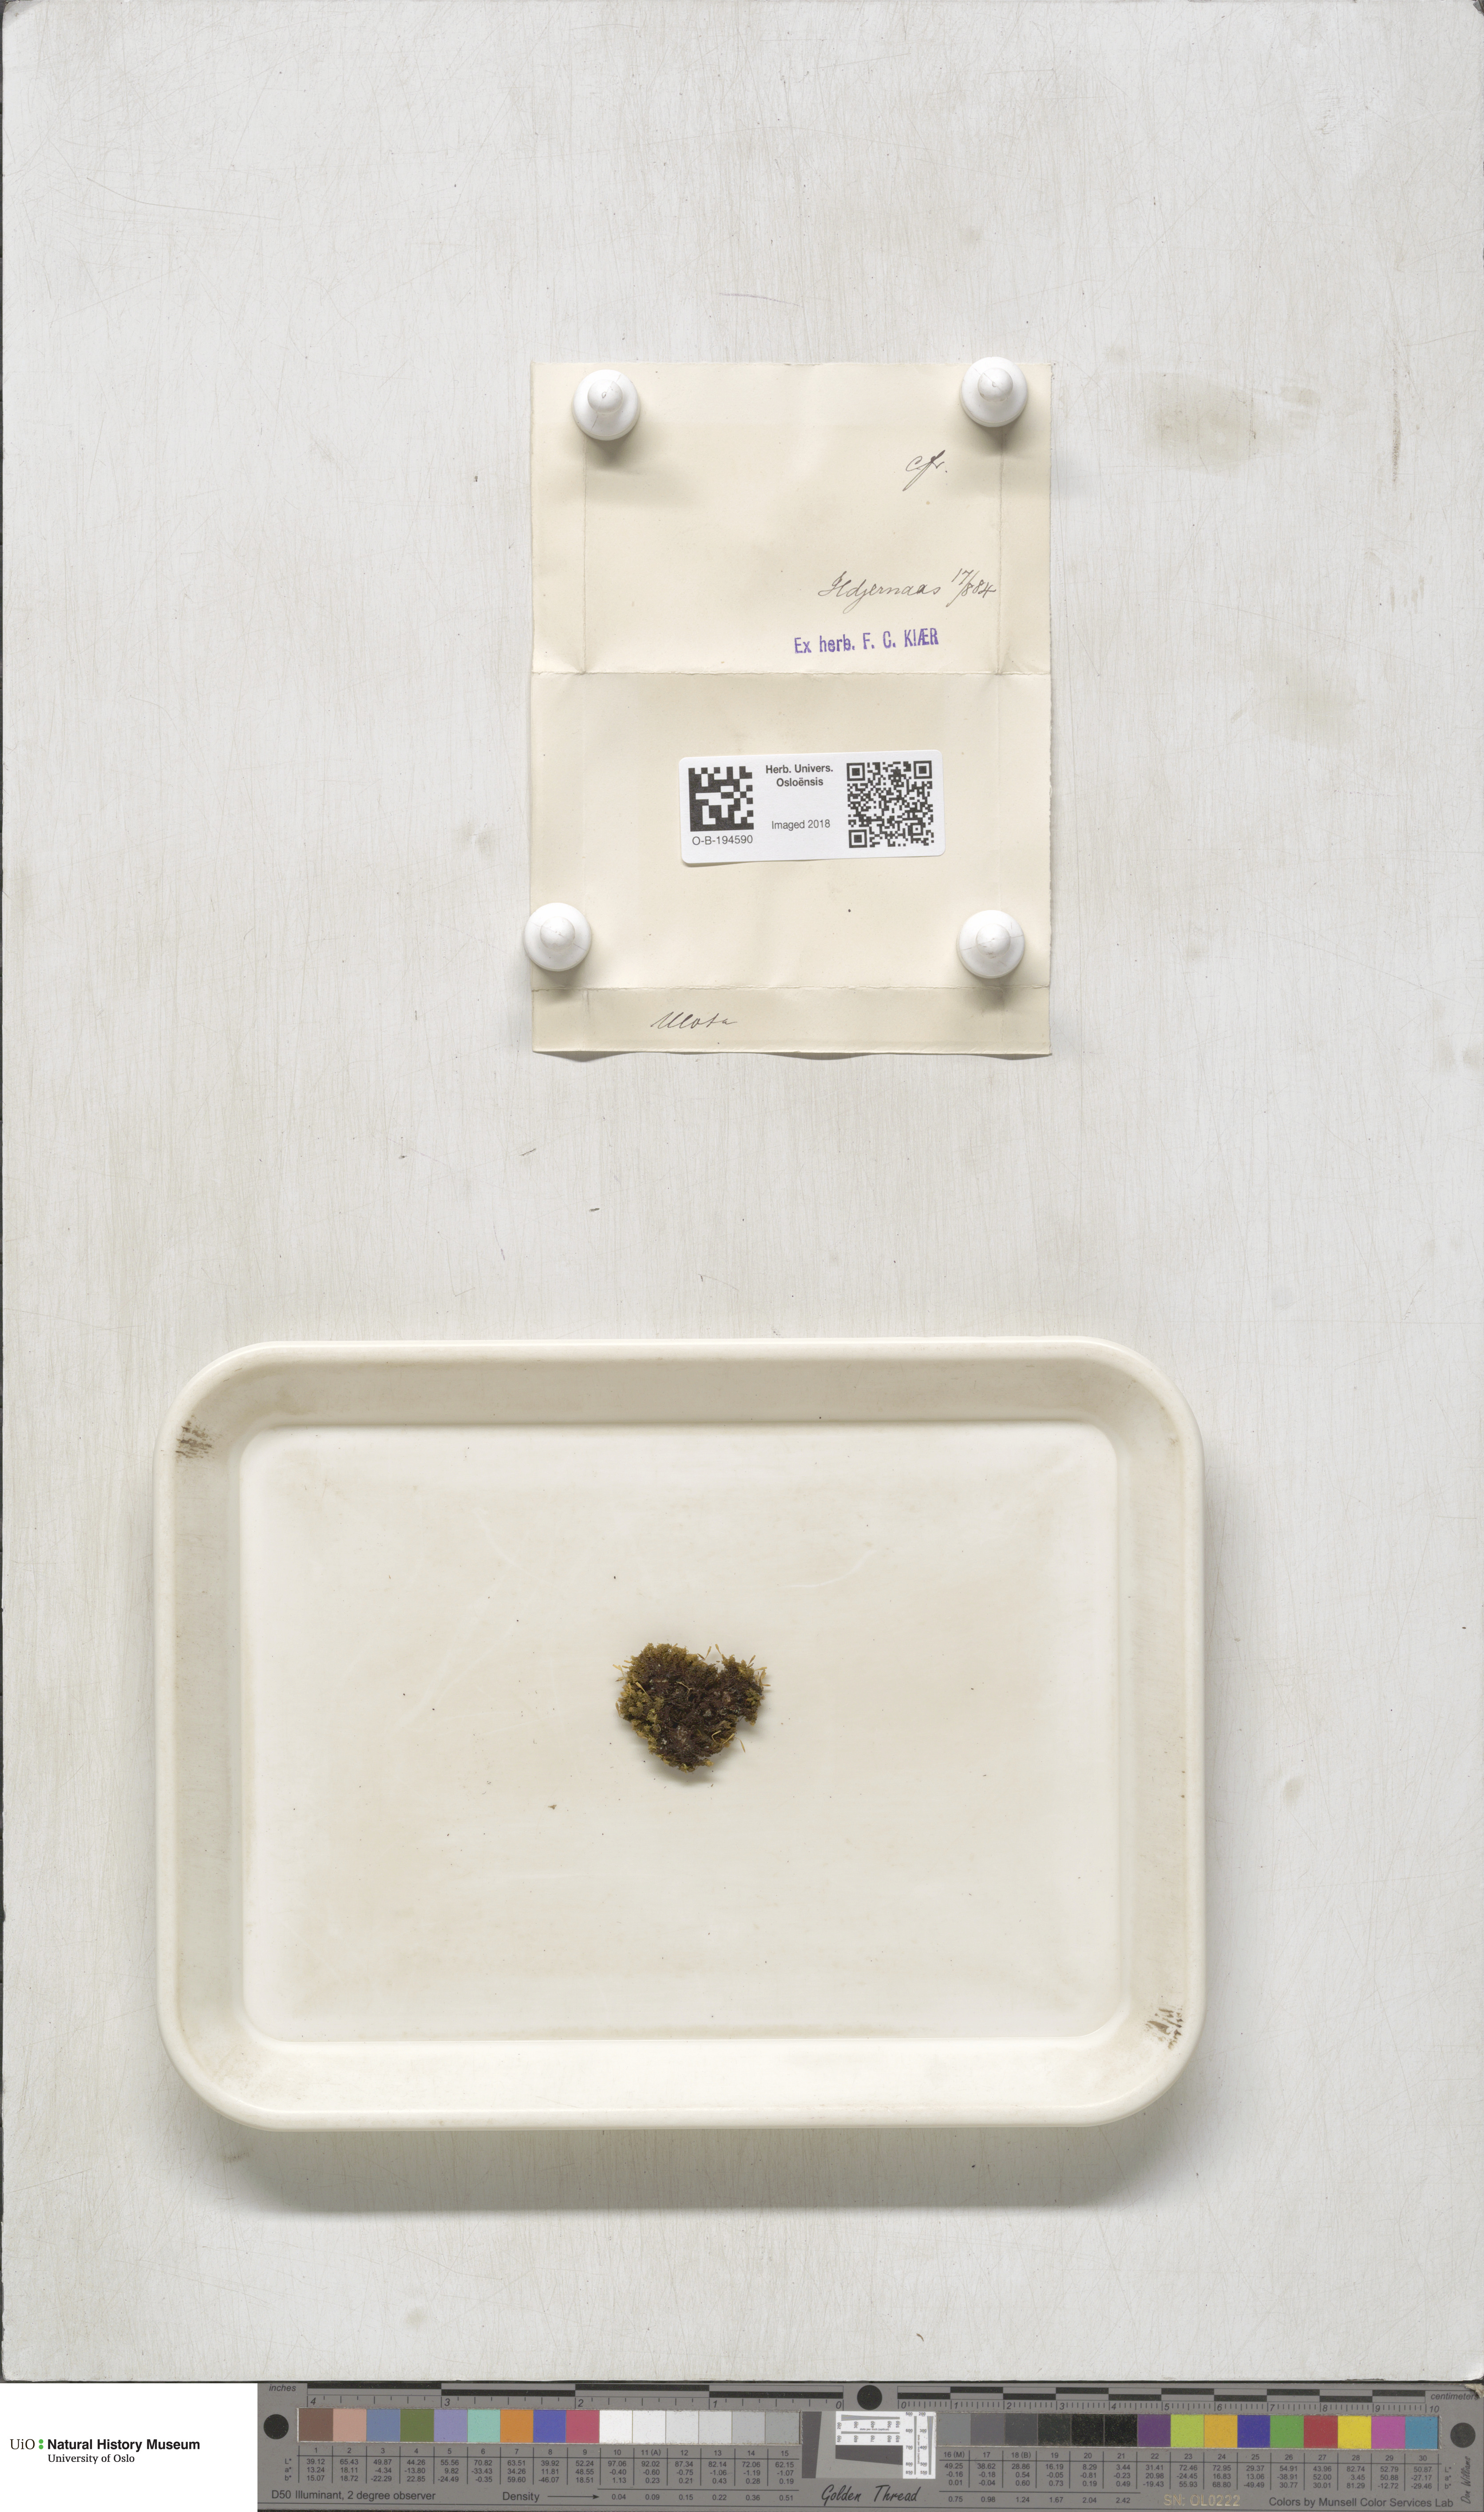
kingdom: Plantae
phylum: Bryophyta
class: Bryopsida
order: Orthotrichales
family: Orthotrichaceae
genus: Ulota
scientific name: Ulota
